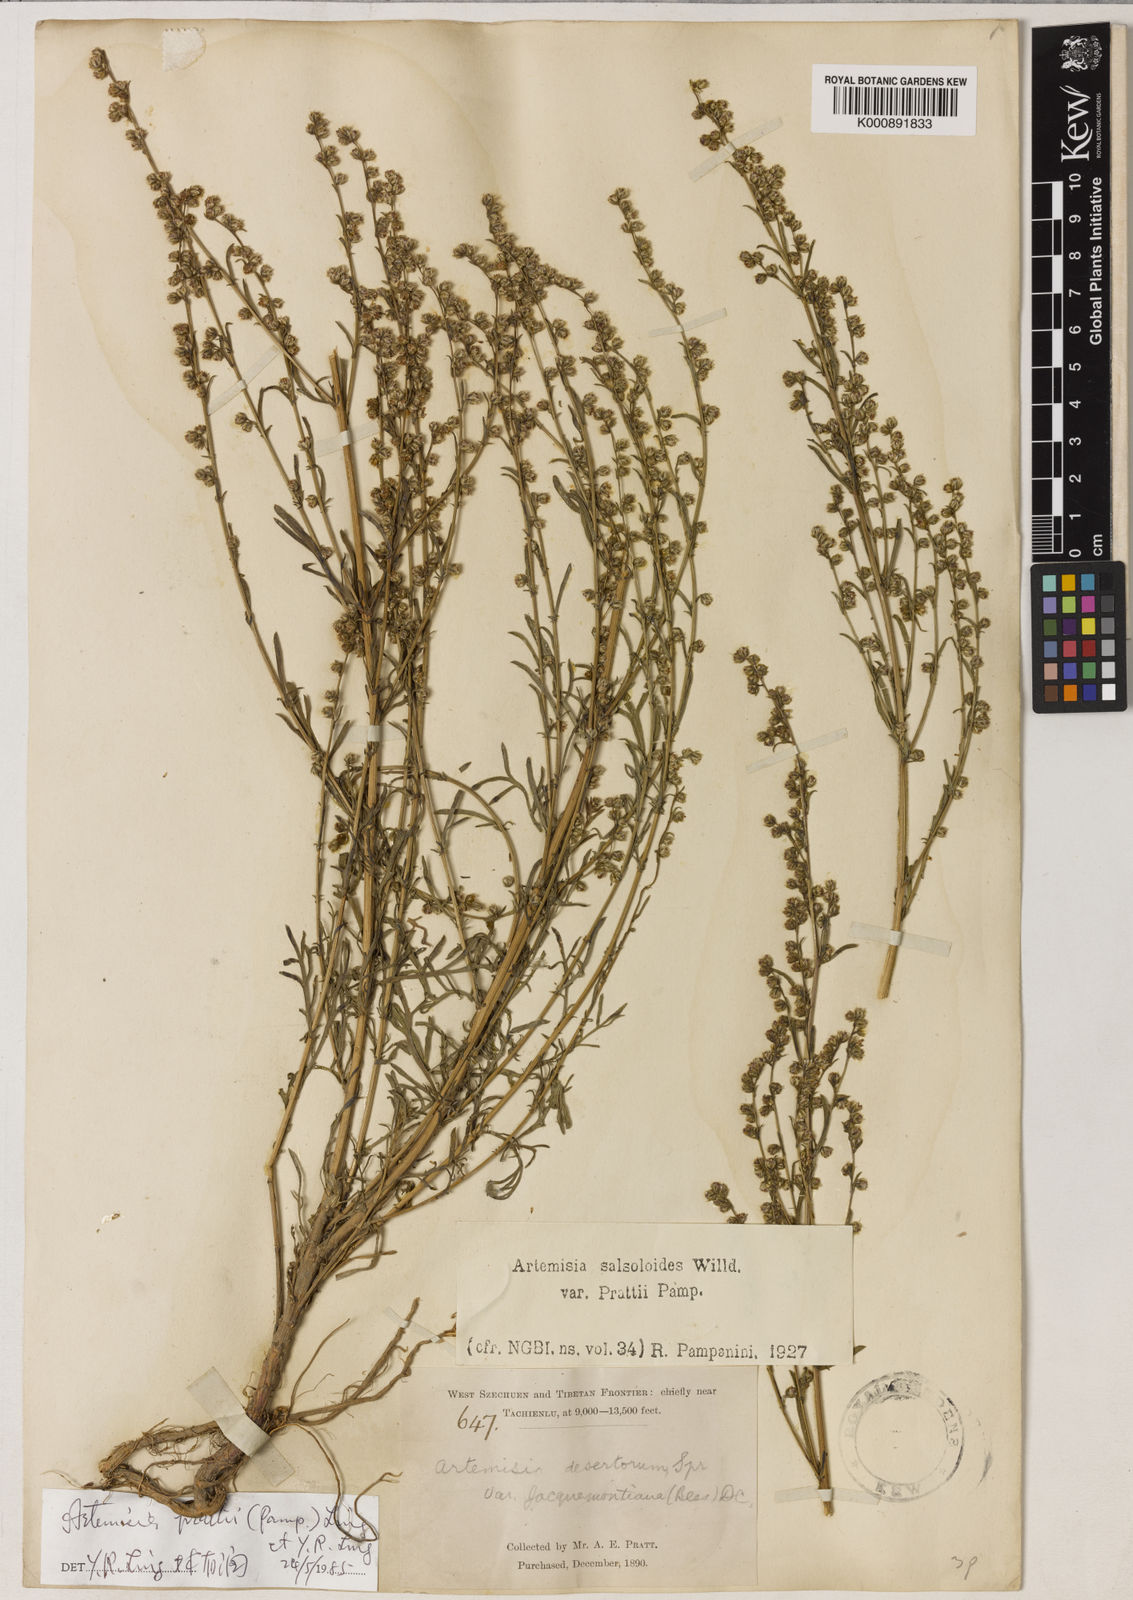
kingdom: Plantae
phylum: Tracheophyta
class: Magnoliopsida
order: Asterales
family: Asteraceae
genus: Artemisia
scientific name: Artemisia prattii
